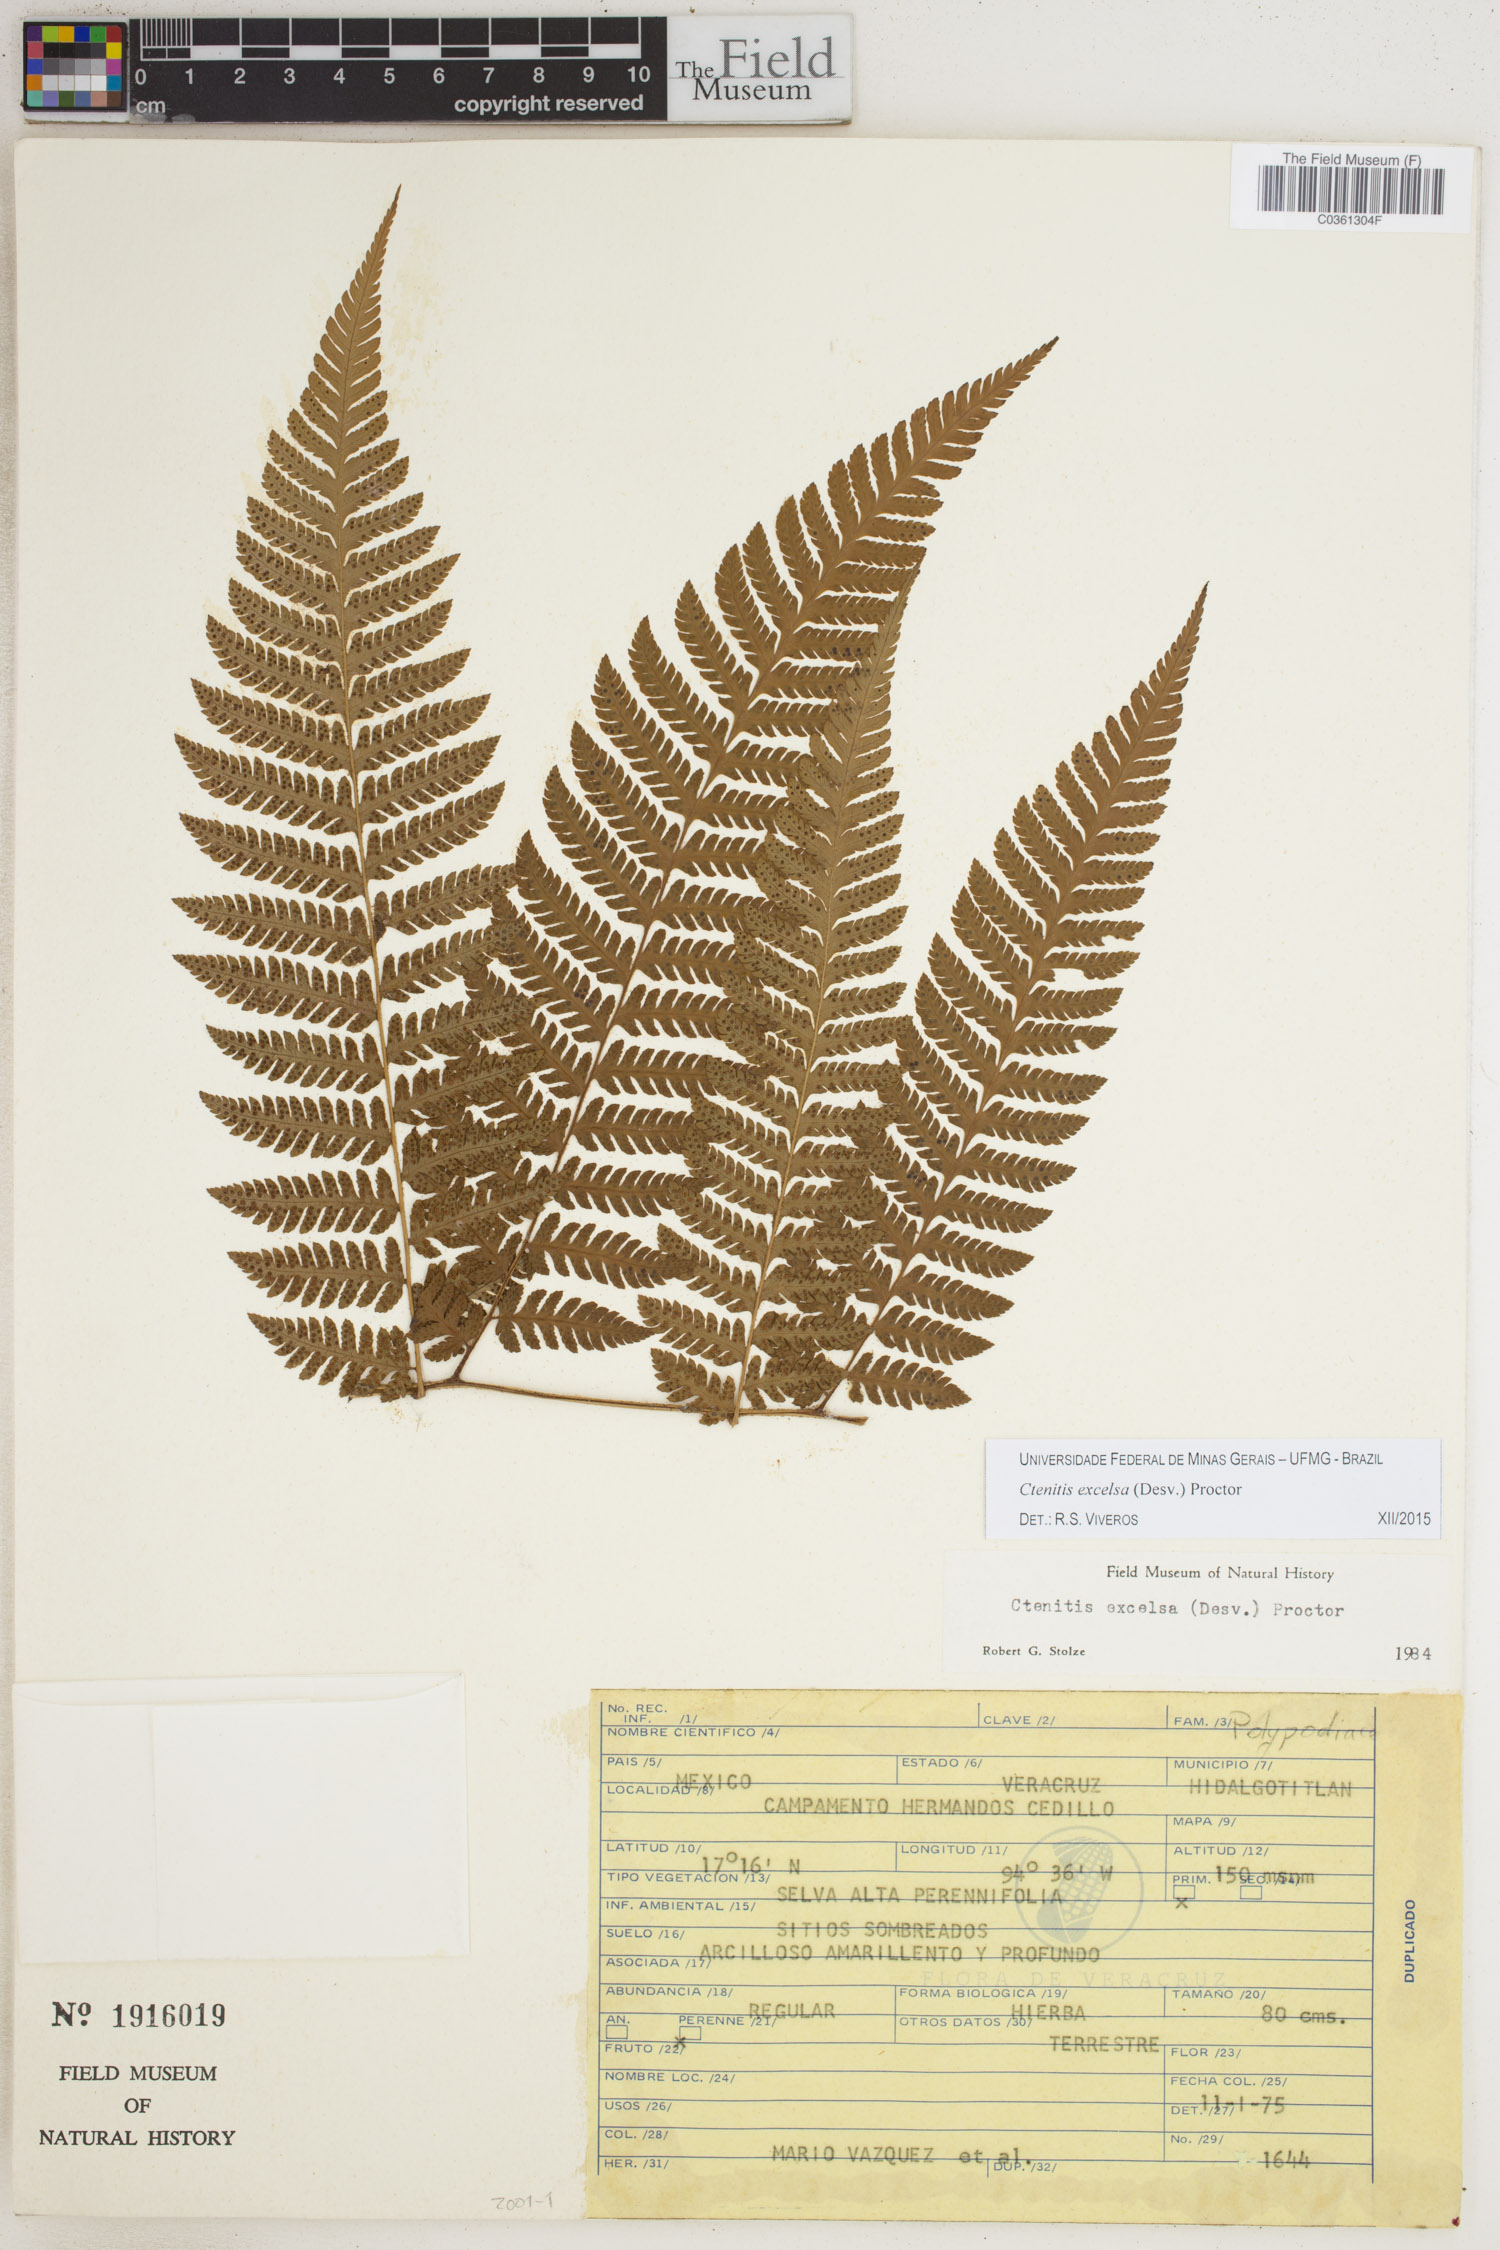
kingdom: Plantae
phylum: Tracheophyta
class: Polypodiopsida
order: Polypodiales
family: Dryopteridaceae
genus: Ctenitis
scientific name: Ctenitis excelsa
